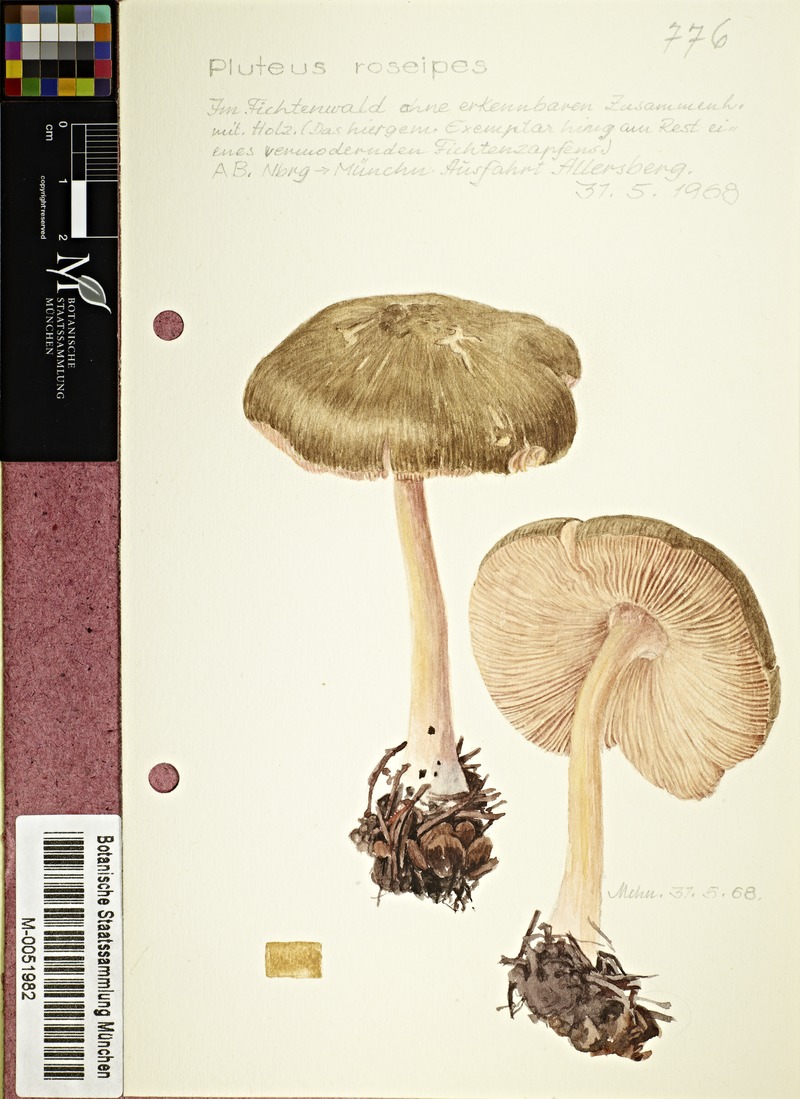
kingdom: Fungi
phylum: Basidiomycota
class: Agaricomycetes
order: Agaricales
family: Pluteaceae
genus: Pluteus
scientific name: Pluteus roseipes
